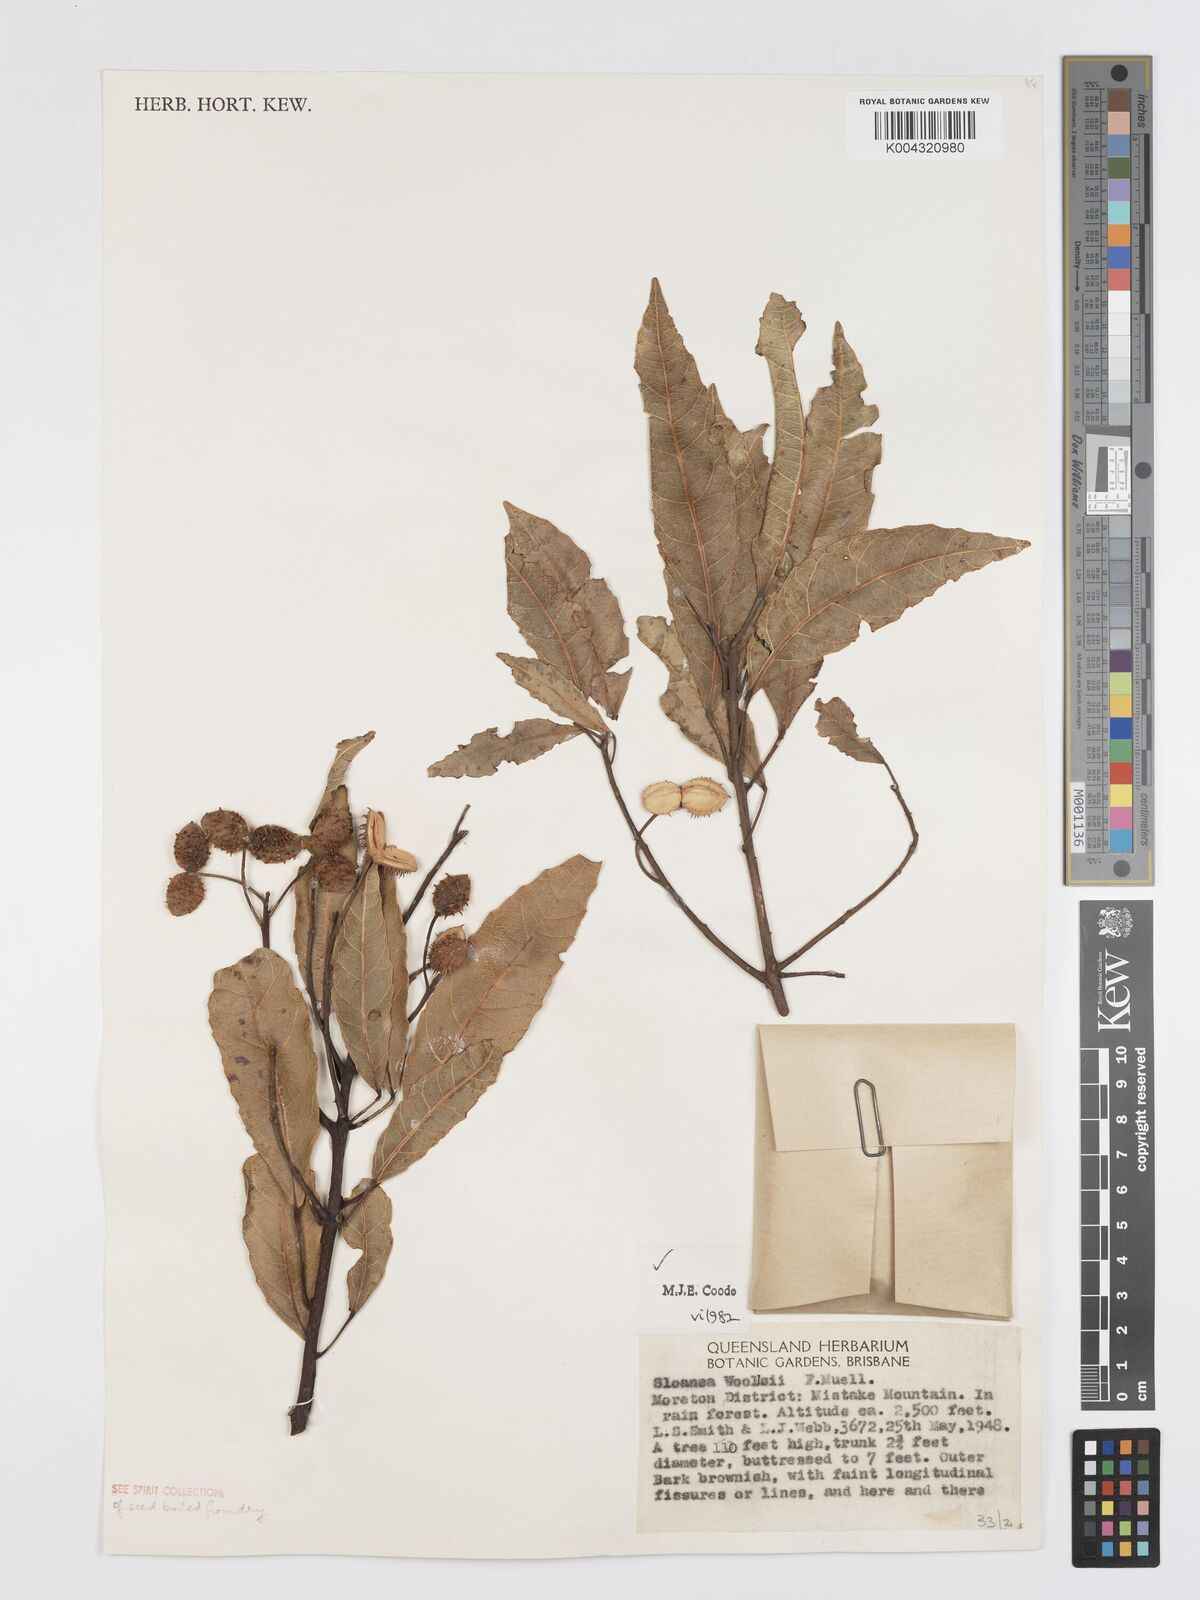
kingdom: Plantae
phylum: Tracheophyta
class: Magnoliopsida
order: Oxalidales
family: Elaeocarpaceae
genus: Sloanea
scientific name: Sloanea woollsii
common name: Yellow carabeen
